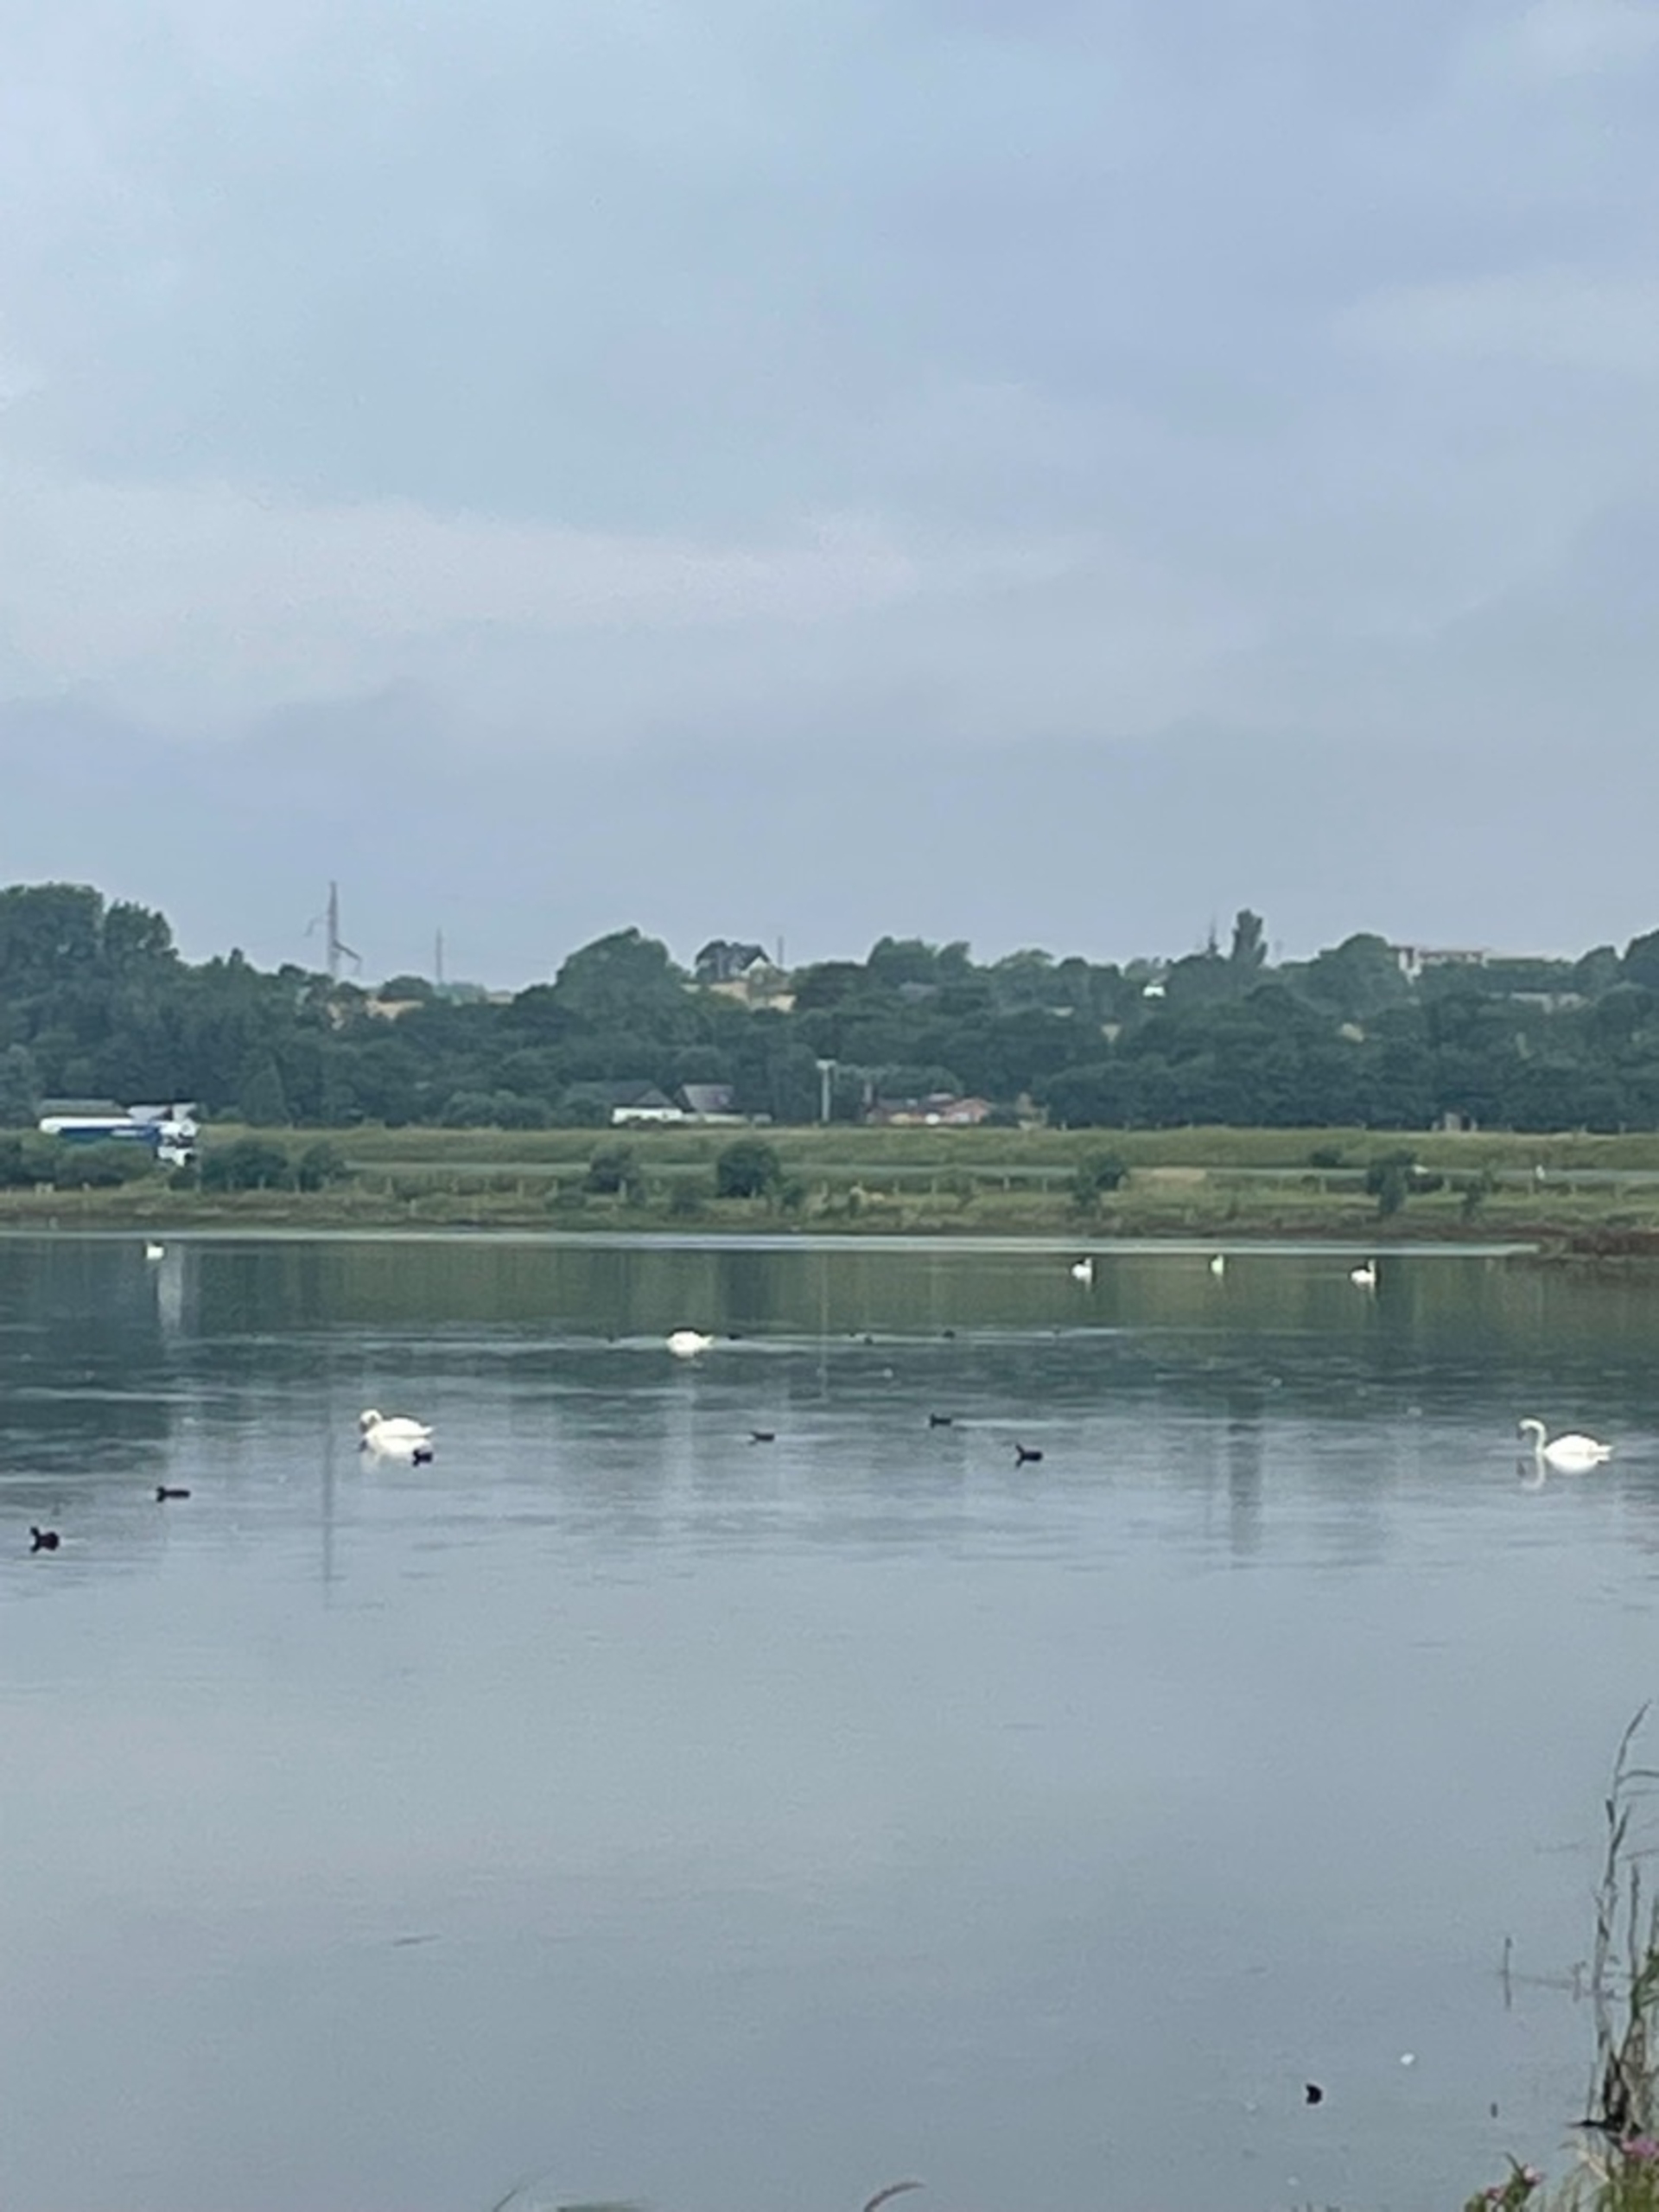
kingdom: Animalia
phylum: Chordata
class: Aves
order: Anseriformes
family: Anatidae
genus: Cygnus
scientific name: Cygnus olor
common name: Knopsvane
